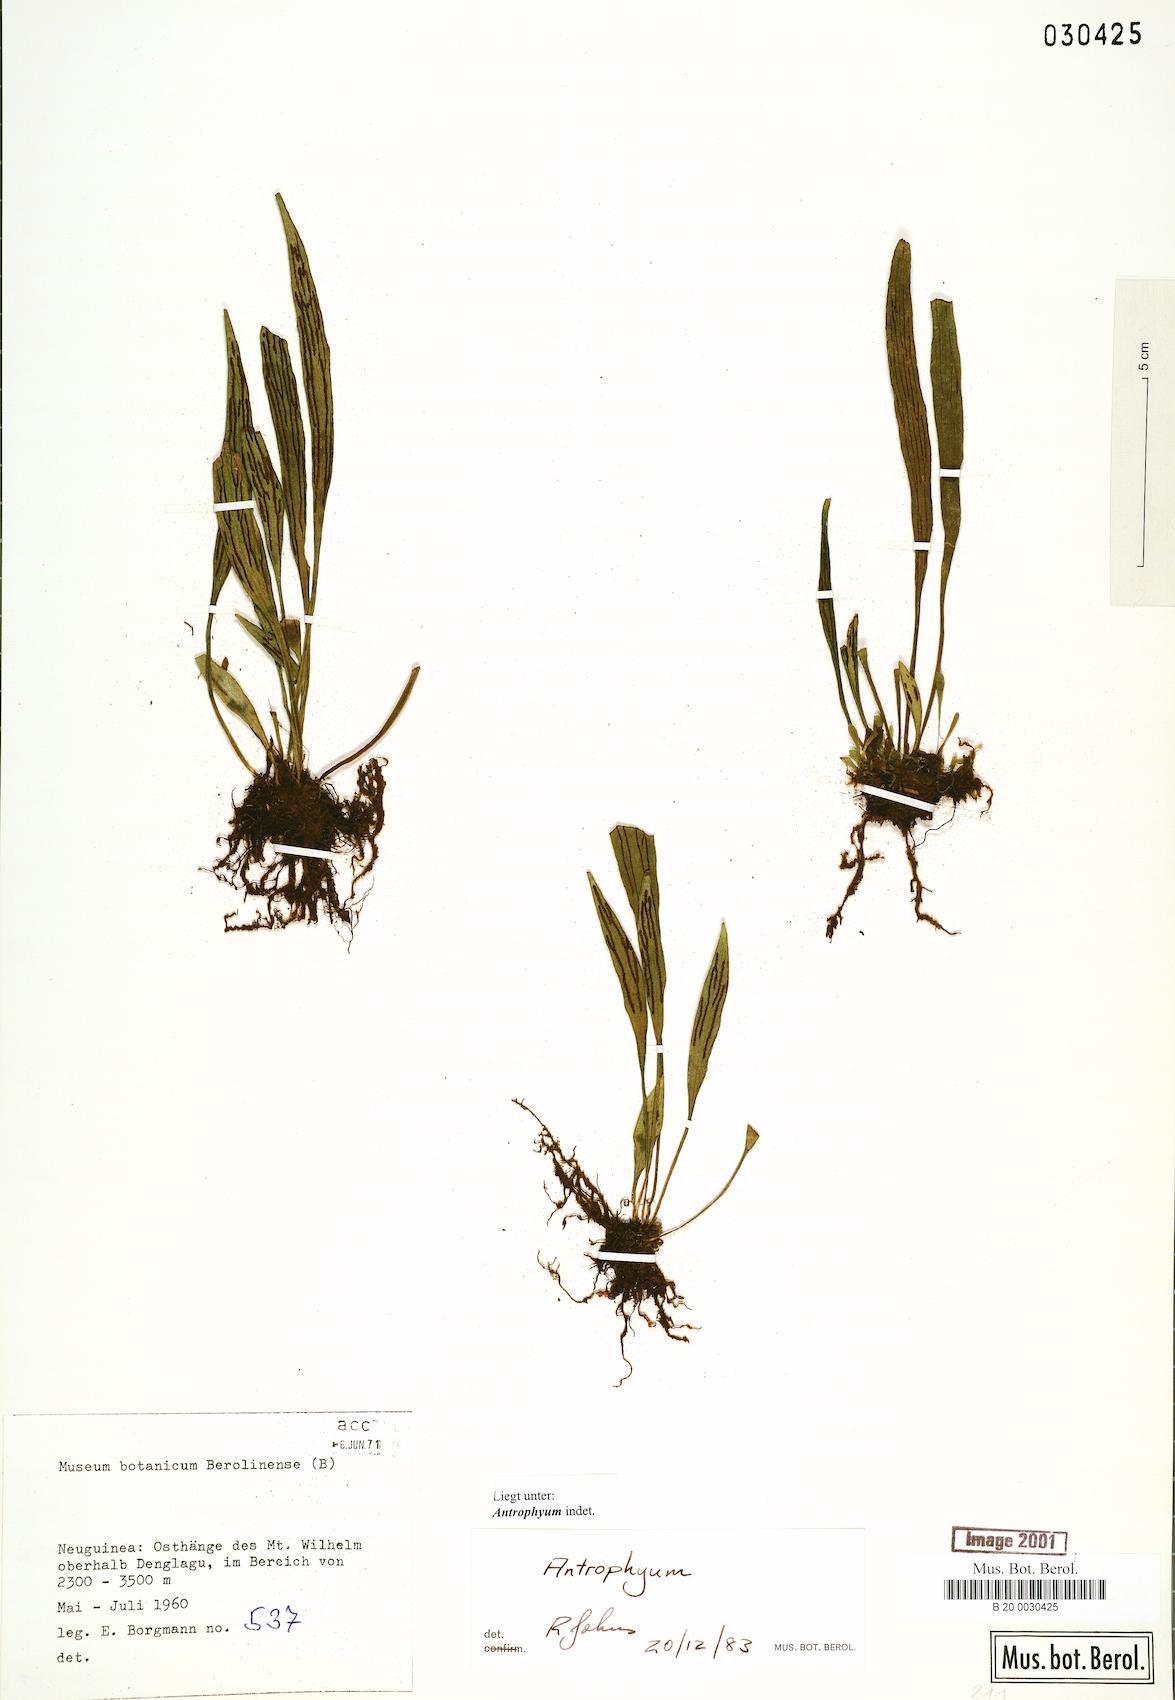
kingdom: Plantae
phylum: Tracheophyta
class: Polypodiopsida
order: Polypodiales
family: Pteridaceae
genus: Antrophyum
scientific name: Antrophyum
